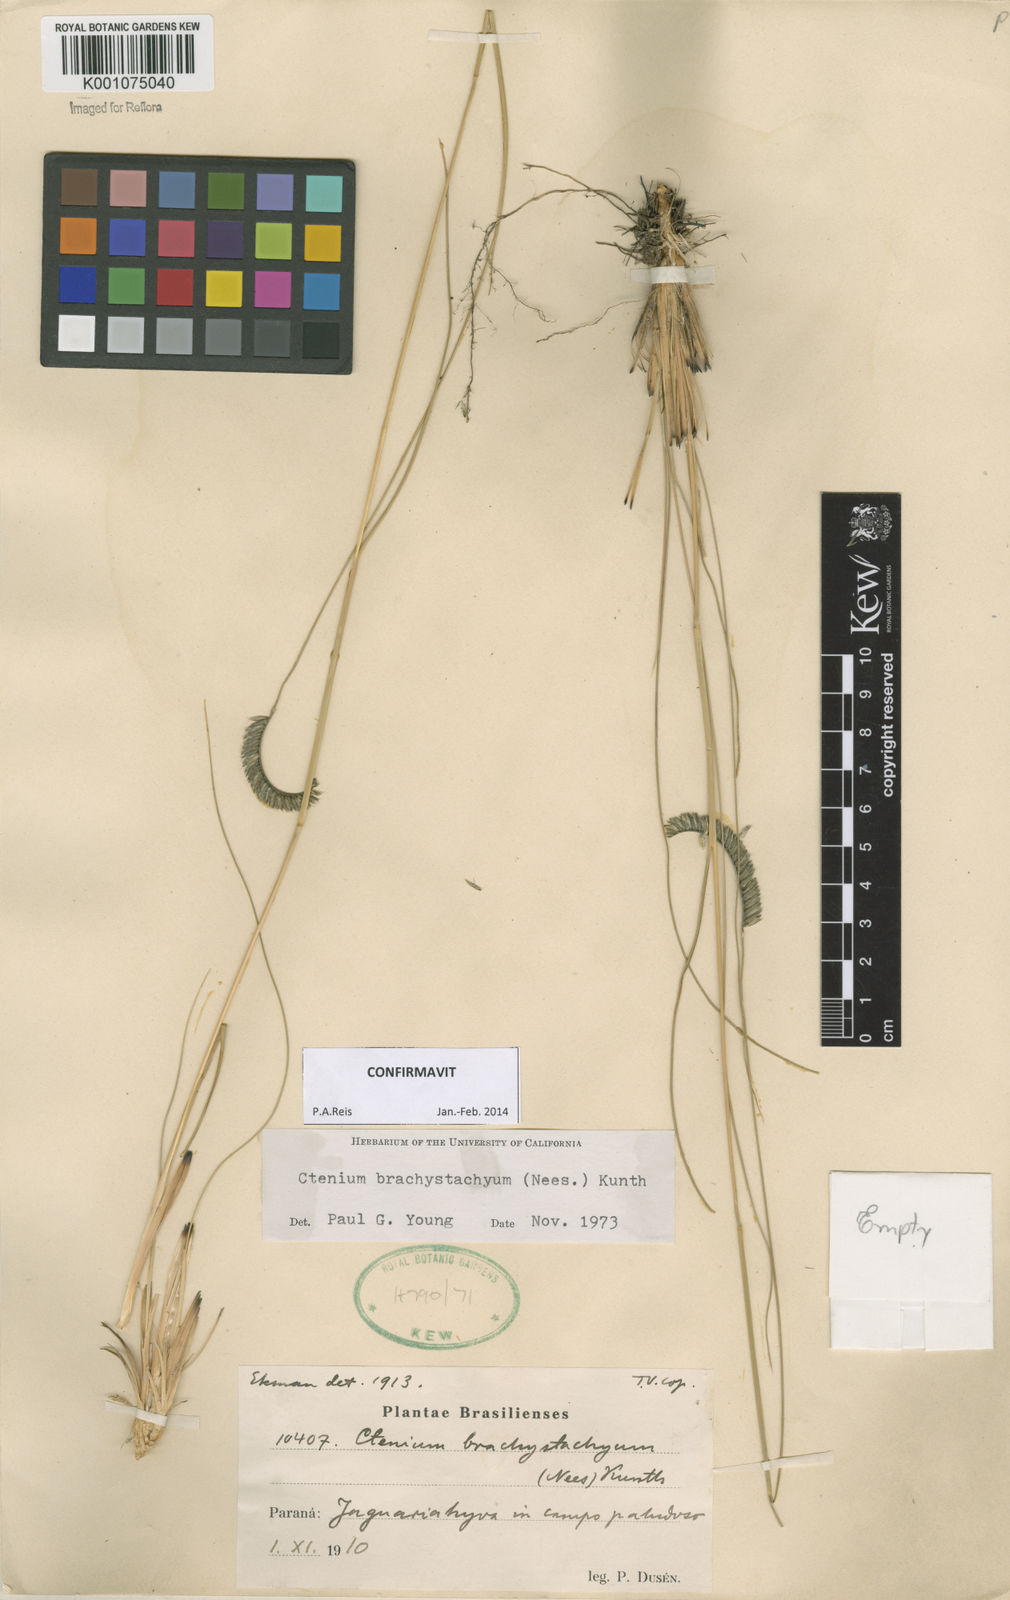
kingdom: Plantae
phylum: Tracheophyta
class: Liliopsida
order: Poales
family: Poaceae
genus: Ctenium
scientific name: Ctenium brachystachyum
